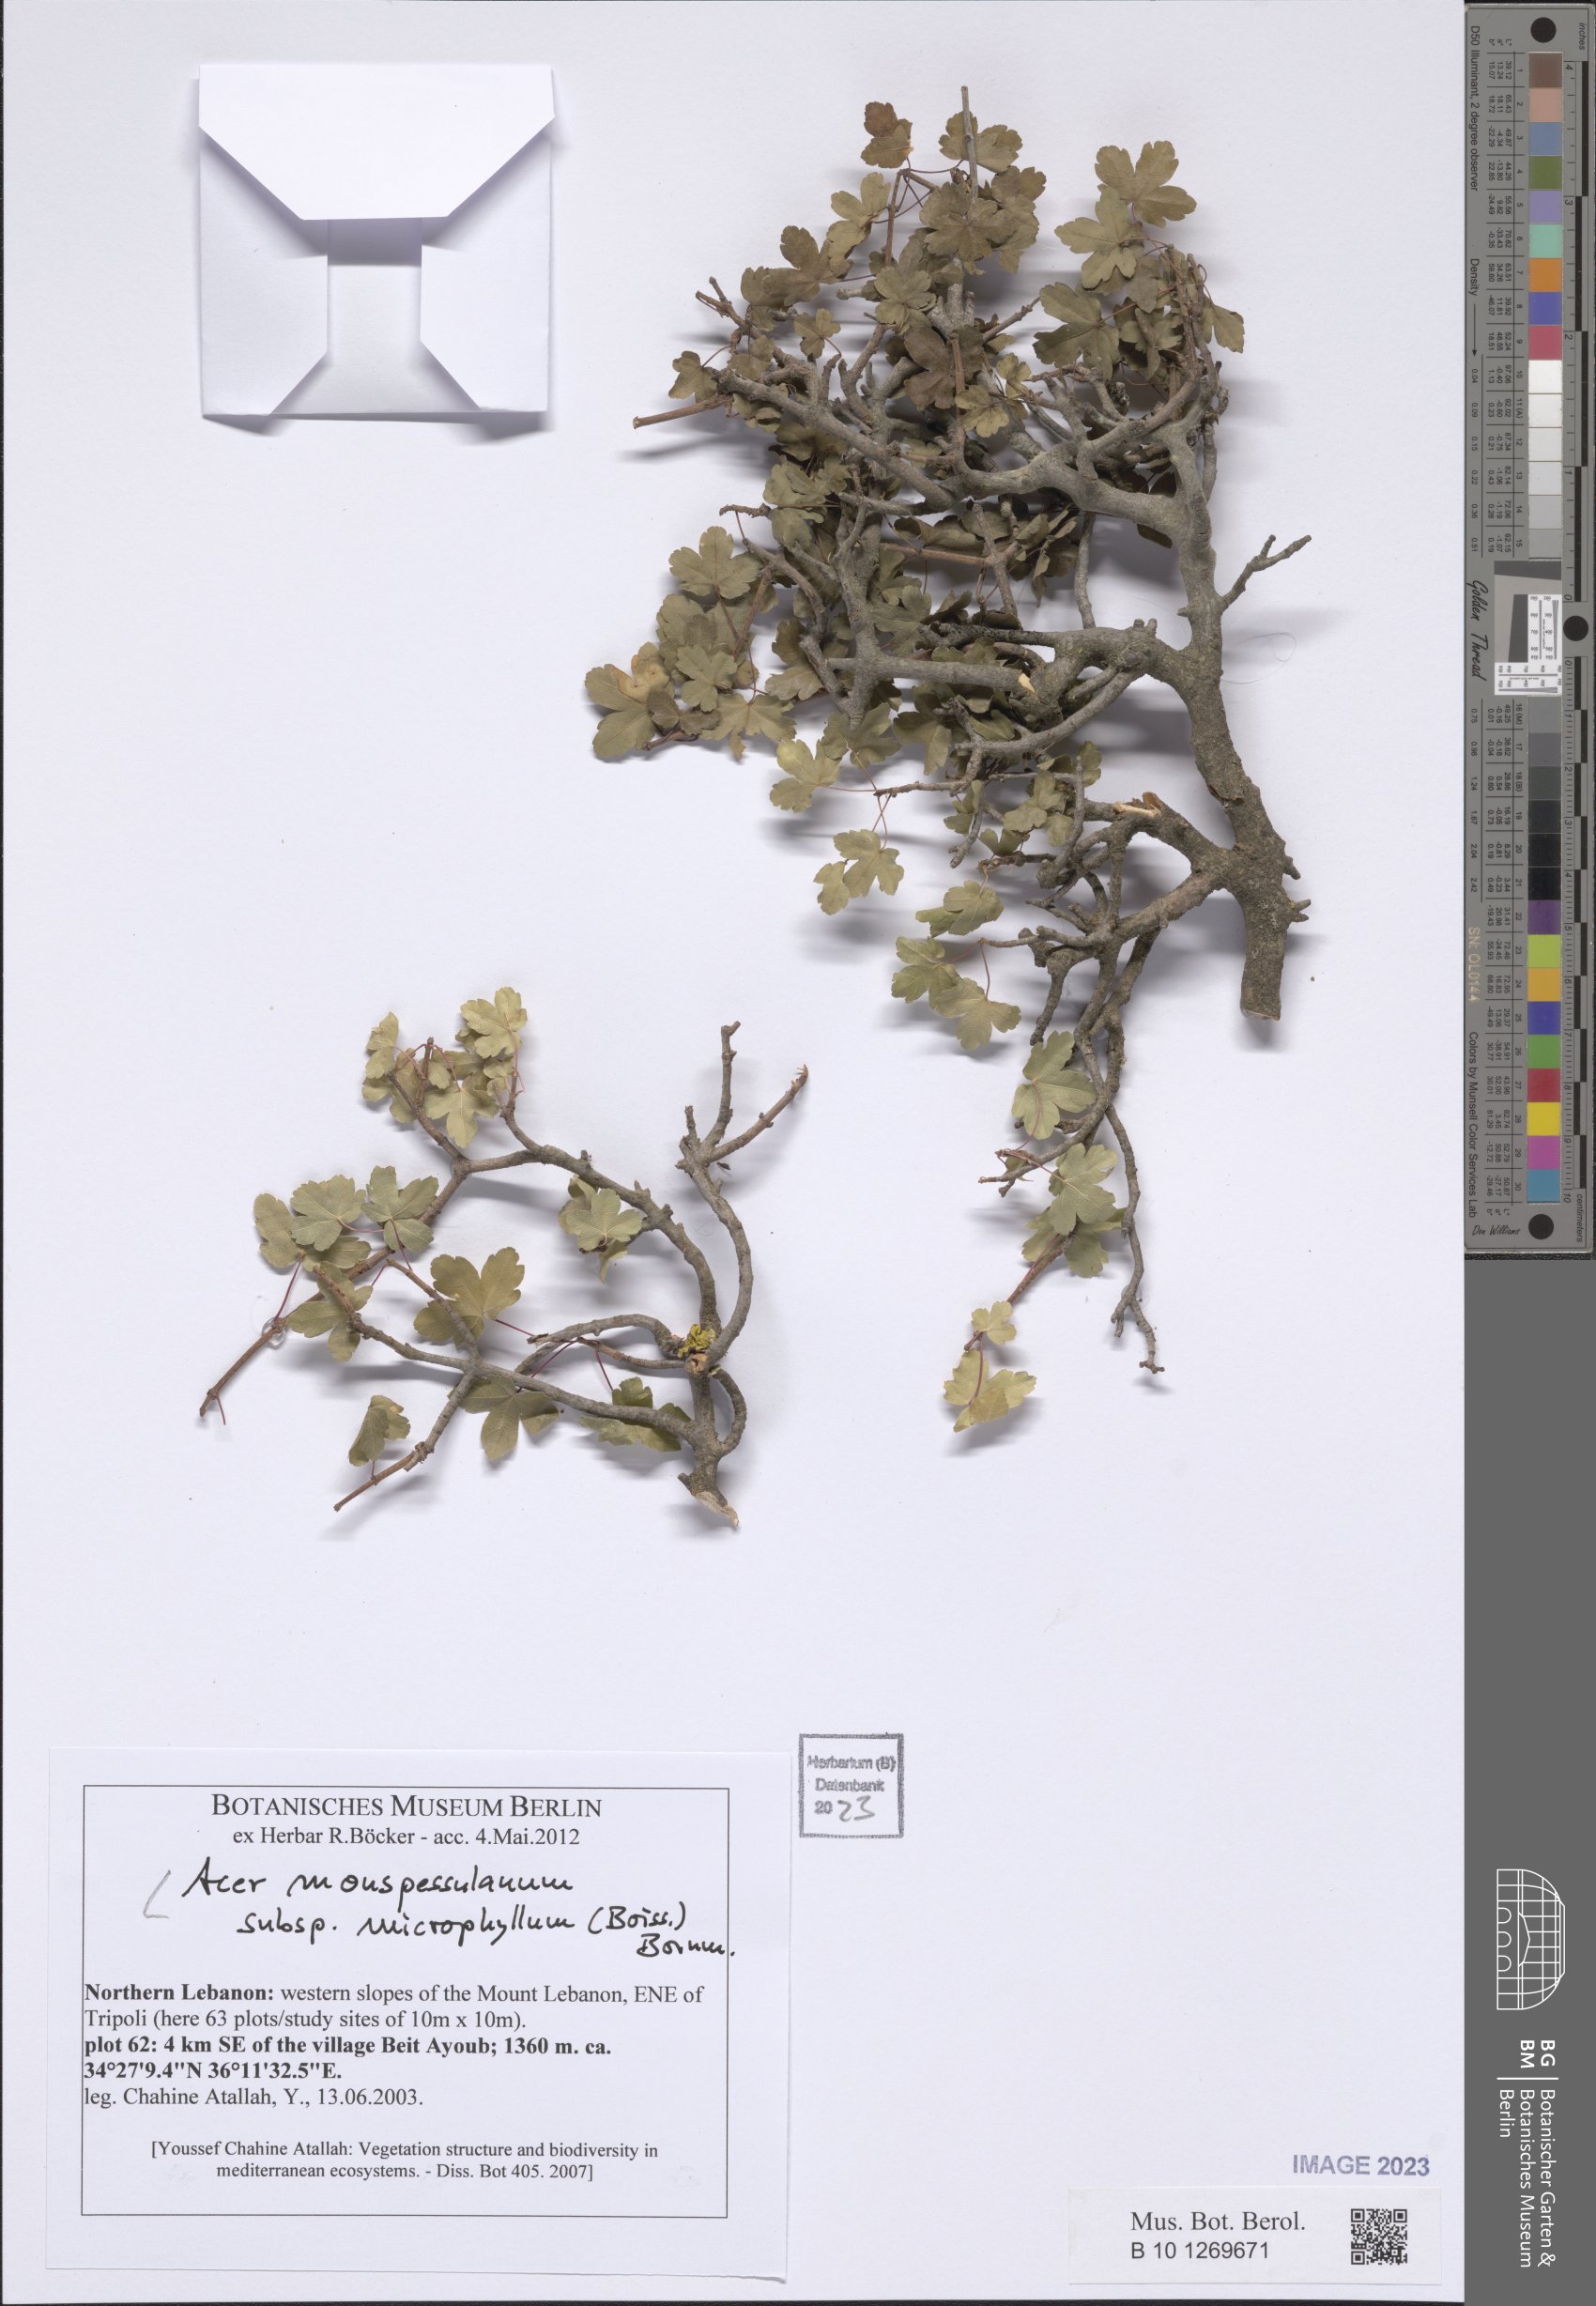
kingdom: Plantae
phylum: Tracheophyta
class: Magnoliopsida
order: Sapindales
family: Sapindaceae
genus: Acer
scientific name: Acer monspessulanum
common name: Montpellier maple
